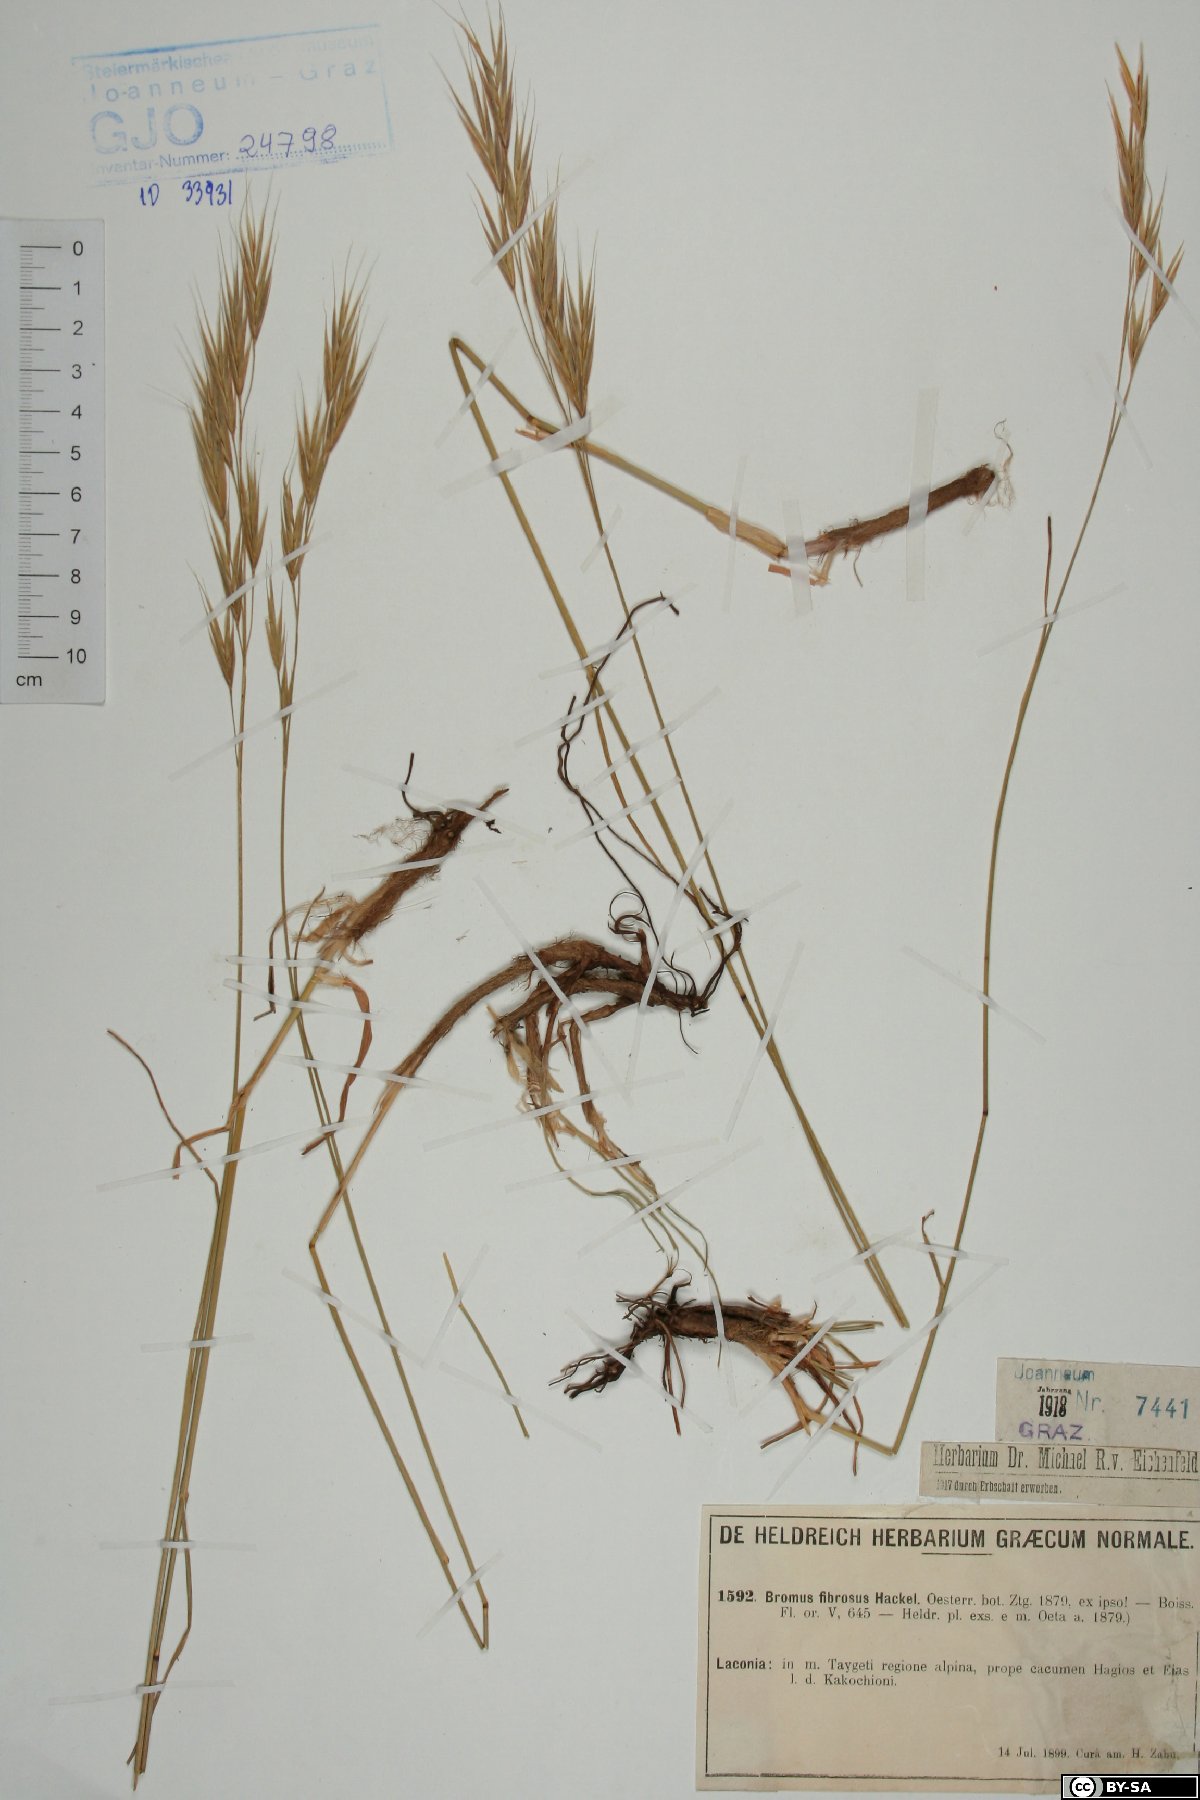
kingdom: Plantae
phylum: Tracheophyta
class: Liliopsida
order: Poales
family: Poaceae
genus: Bromus
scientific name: Bromus riparius
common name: Meadow brome
